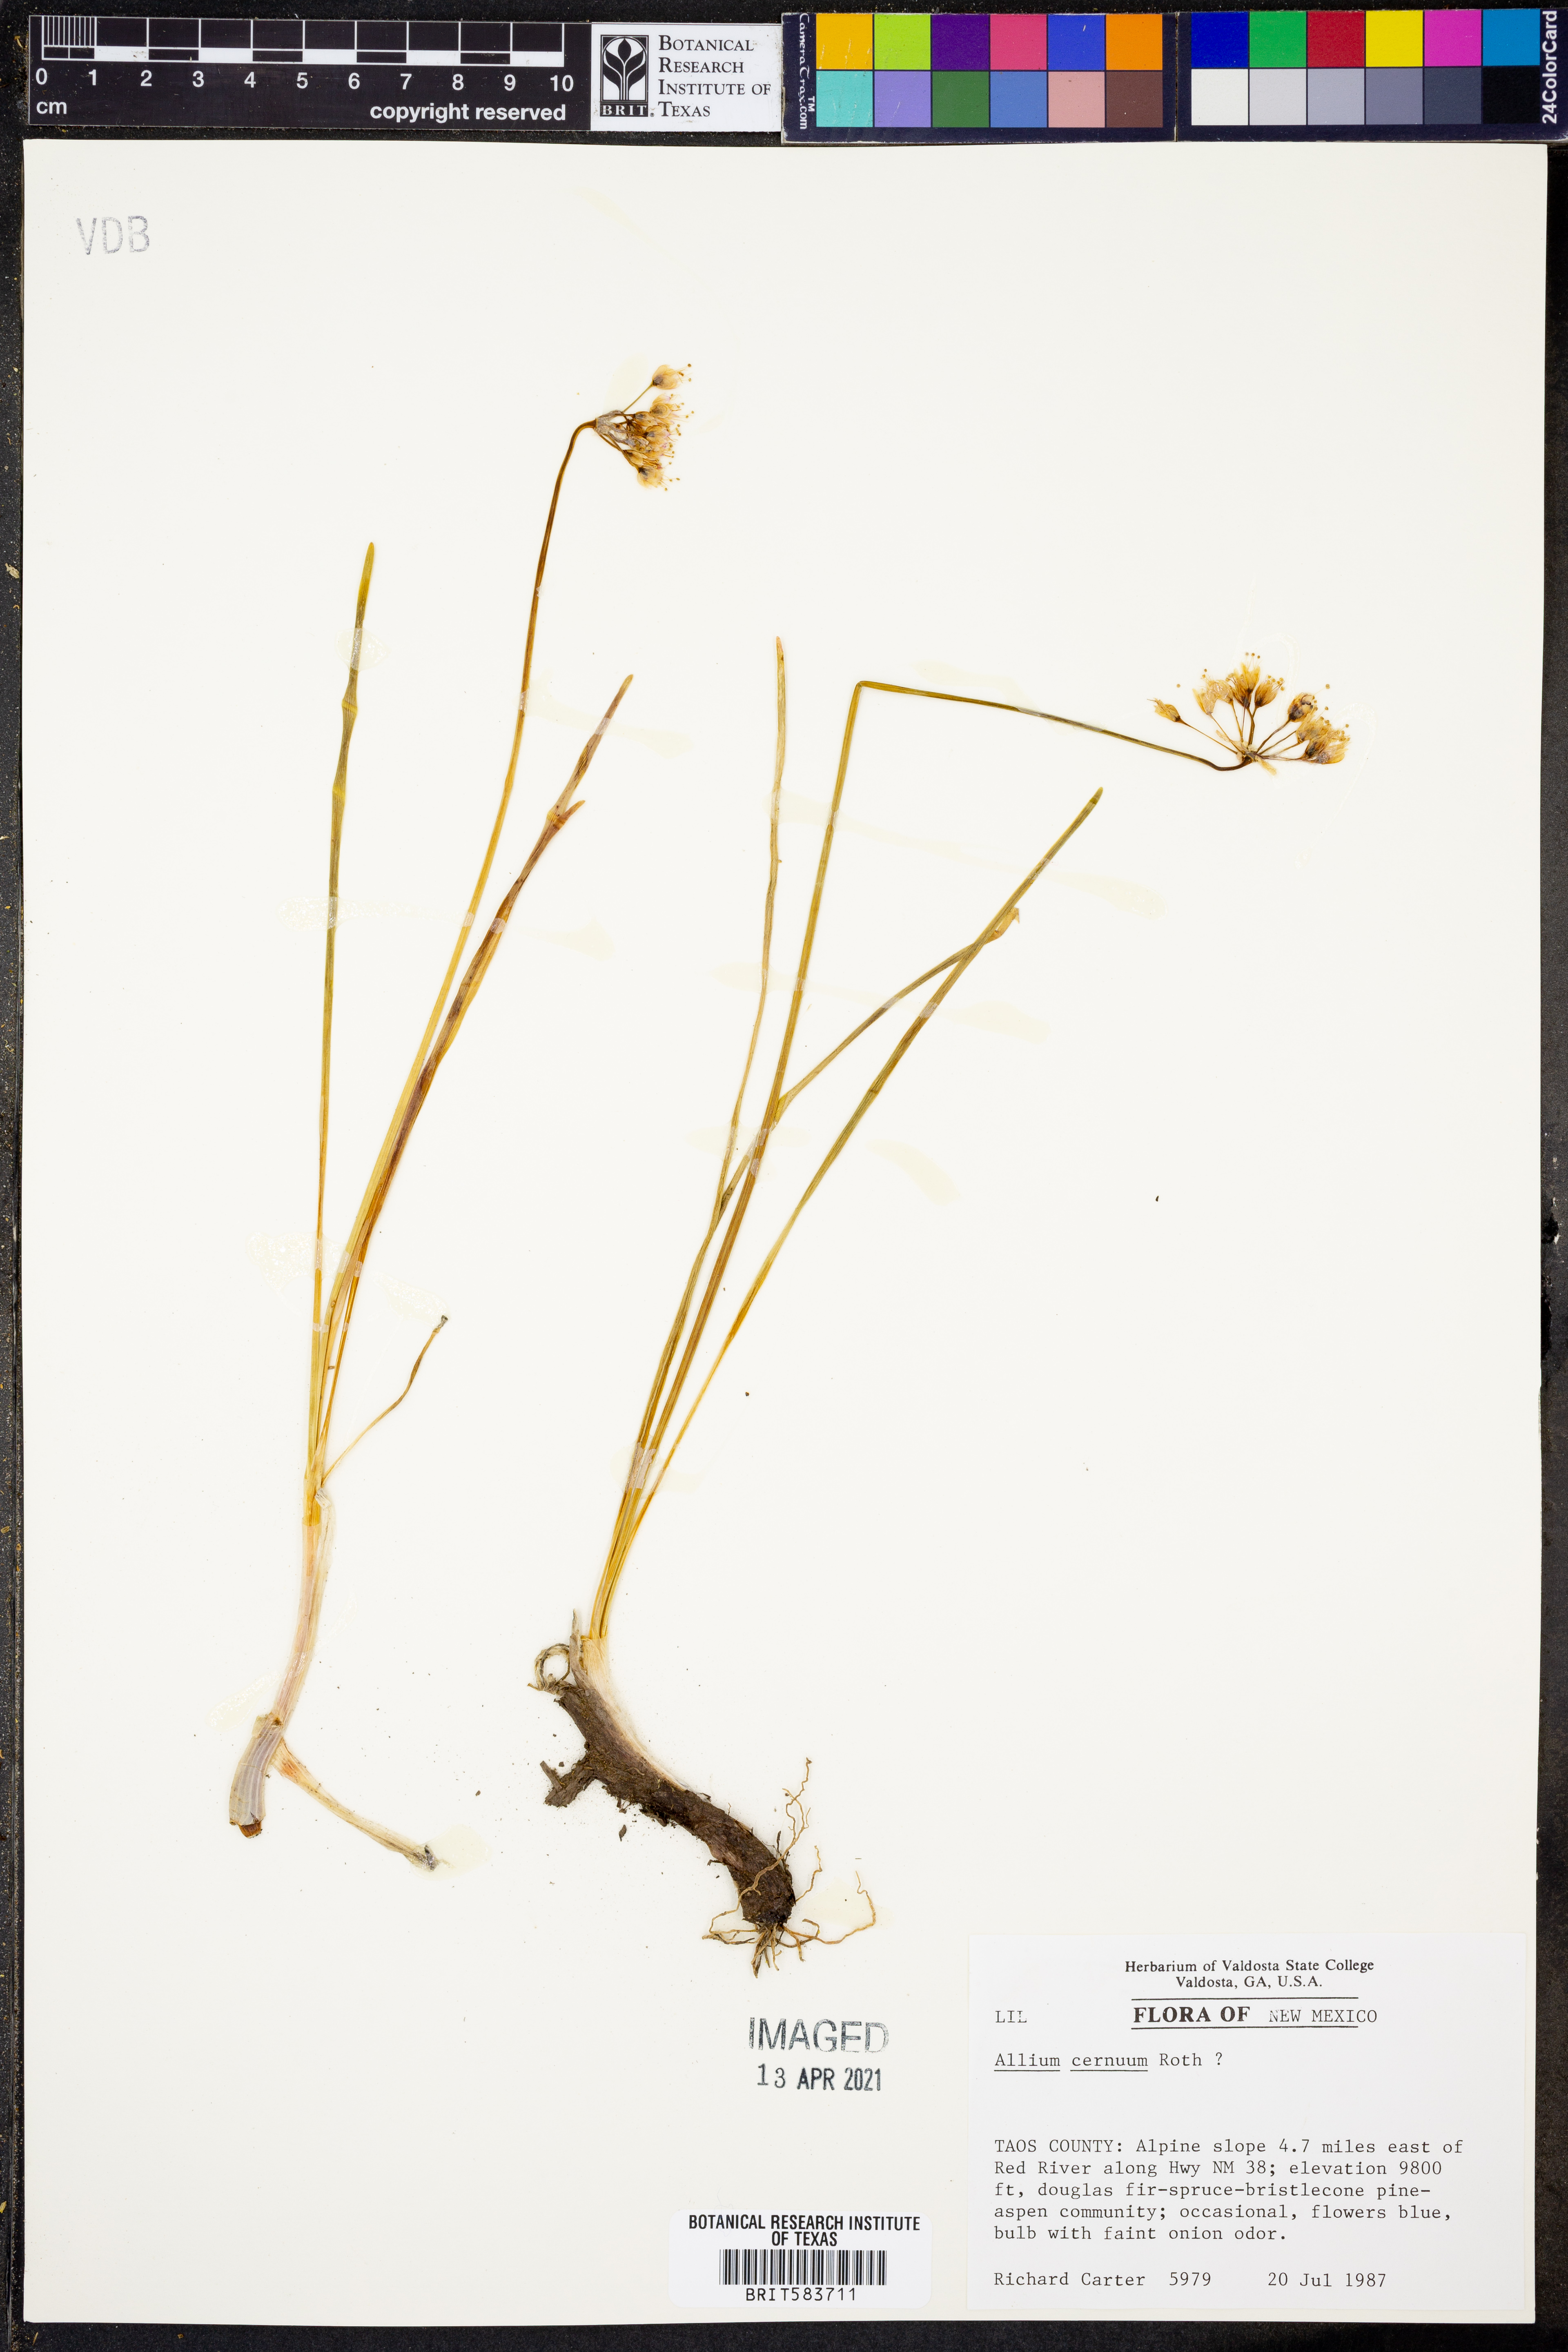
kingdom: Plantae
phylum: Tracheophyta
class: Liliopsida
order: Asparagales
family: Amaryllidaceae
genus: Allium
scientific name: Allium cernuum
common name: Nodding onion
